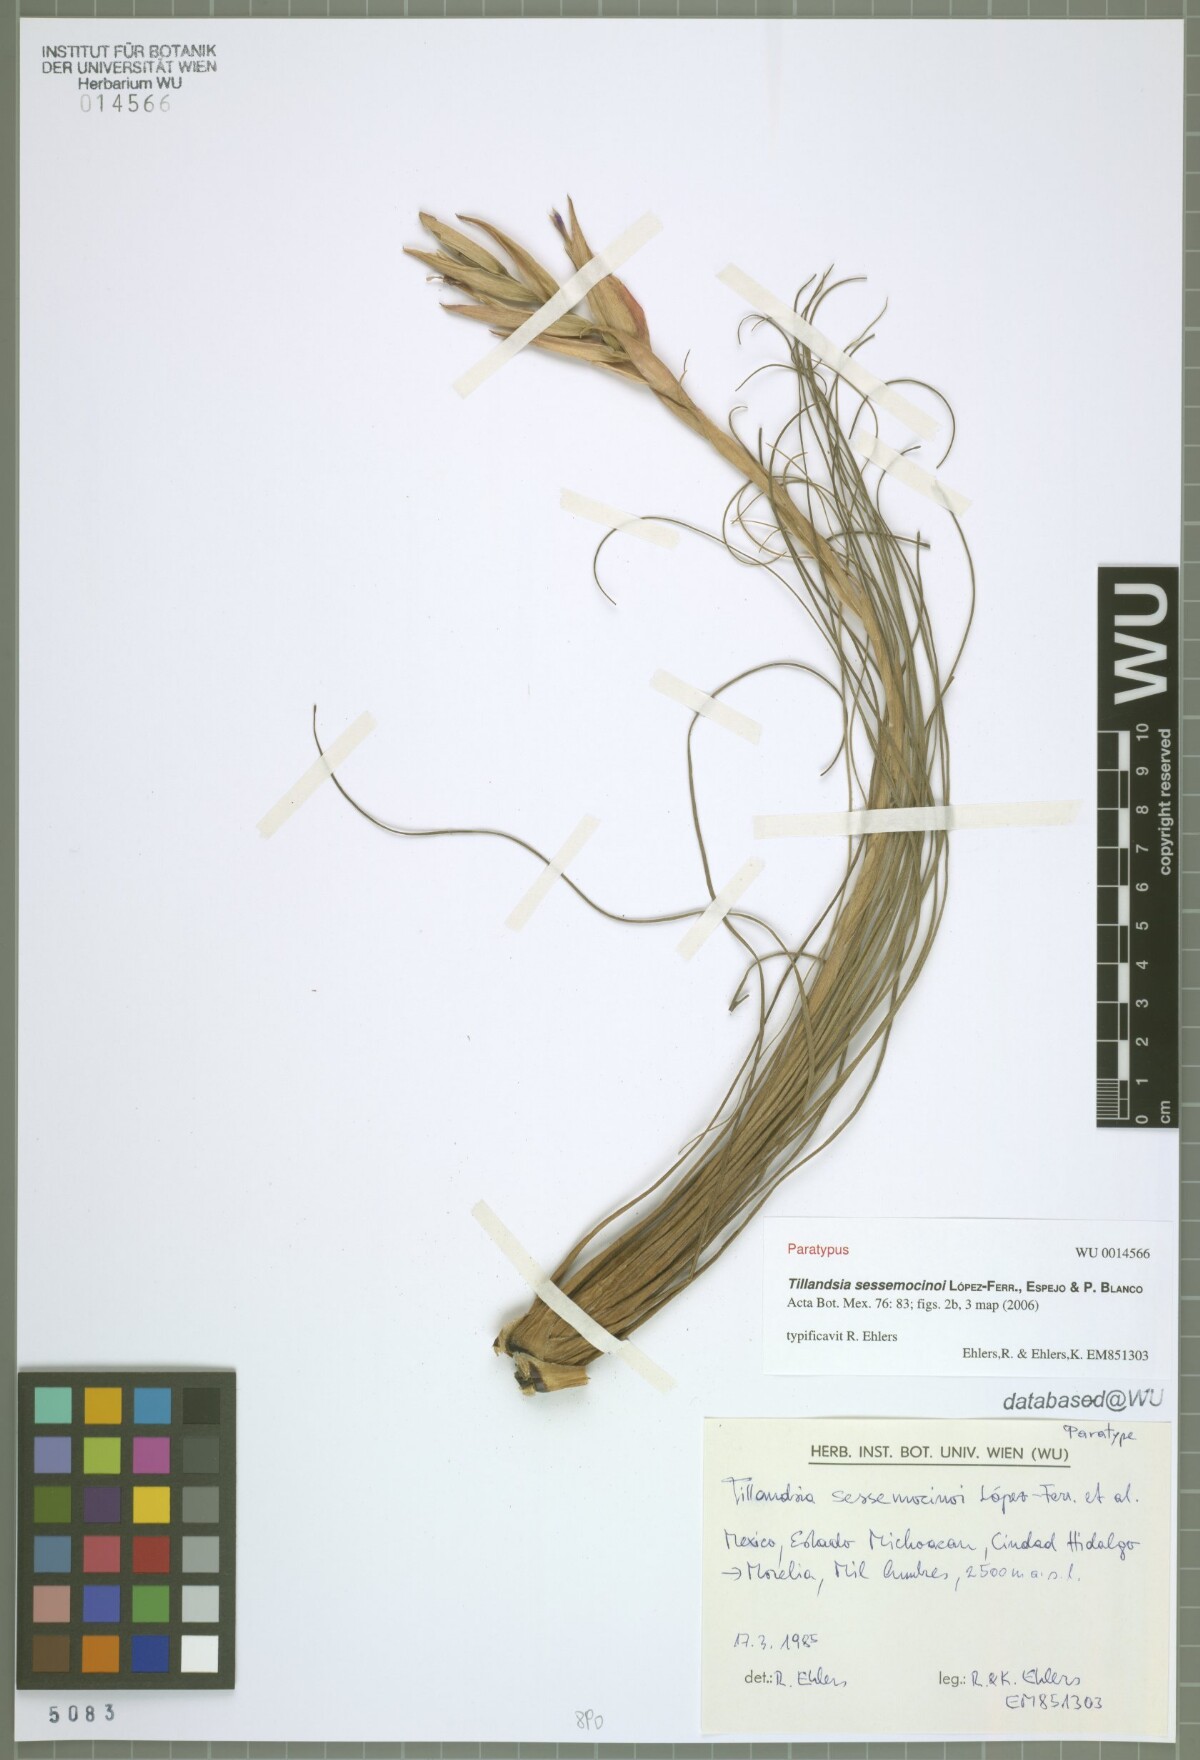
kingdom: Plantae
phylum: Tracheophyta
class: Liliopsida
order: Poales
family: Bromeliaceae
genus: Tillandsia
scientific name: Tillandsia sessemocinoi
